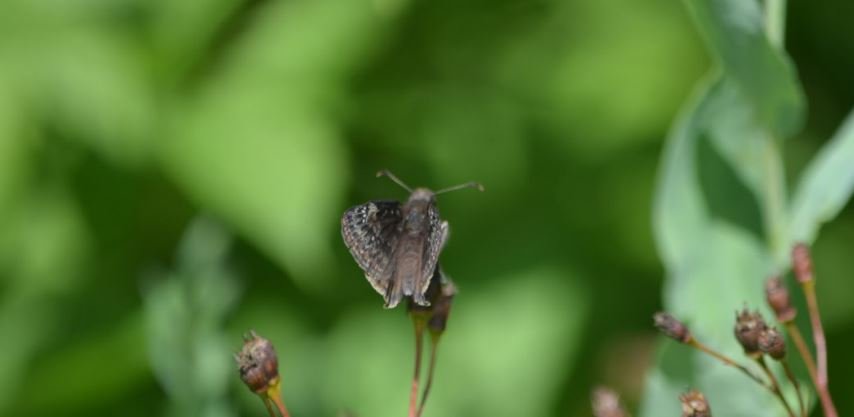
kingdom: Animalia
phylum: Arthropoda
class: Insecta
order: Lepidoptera
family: Hesperiidae
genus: Erynnis
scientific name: Erynnis
